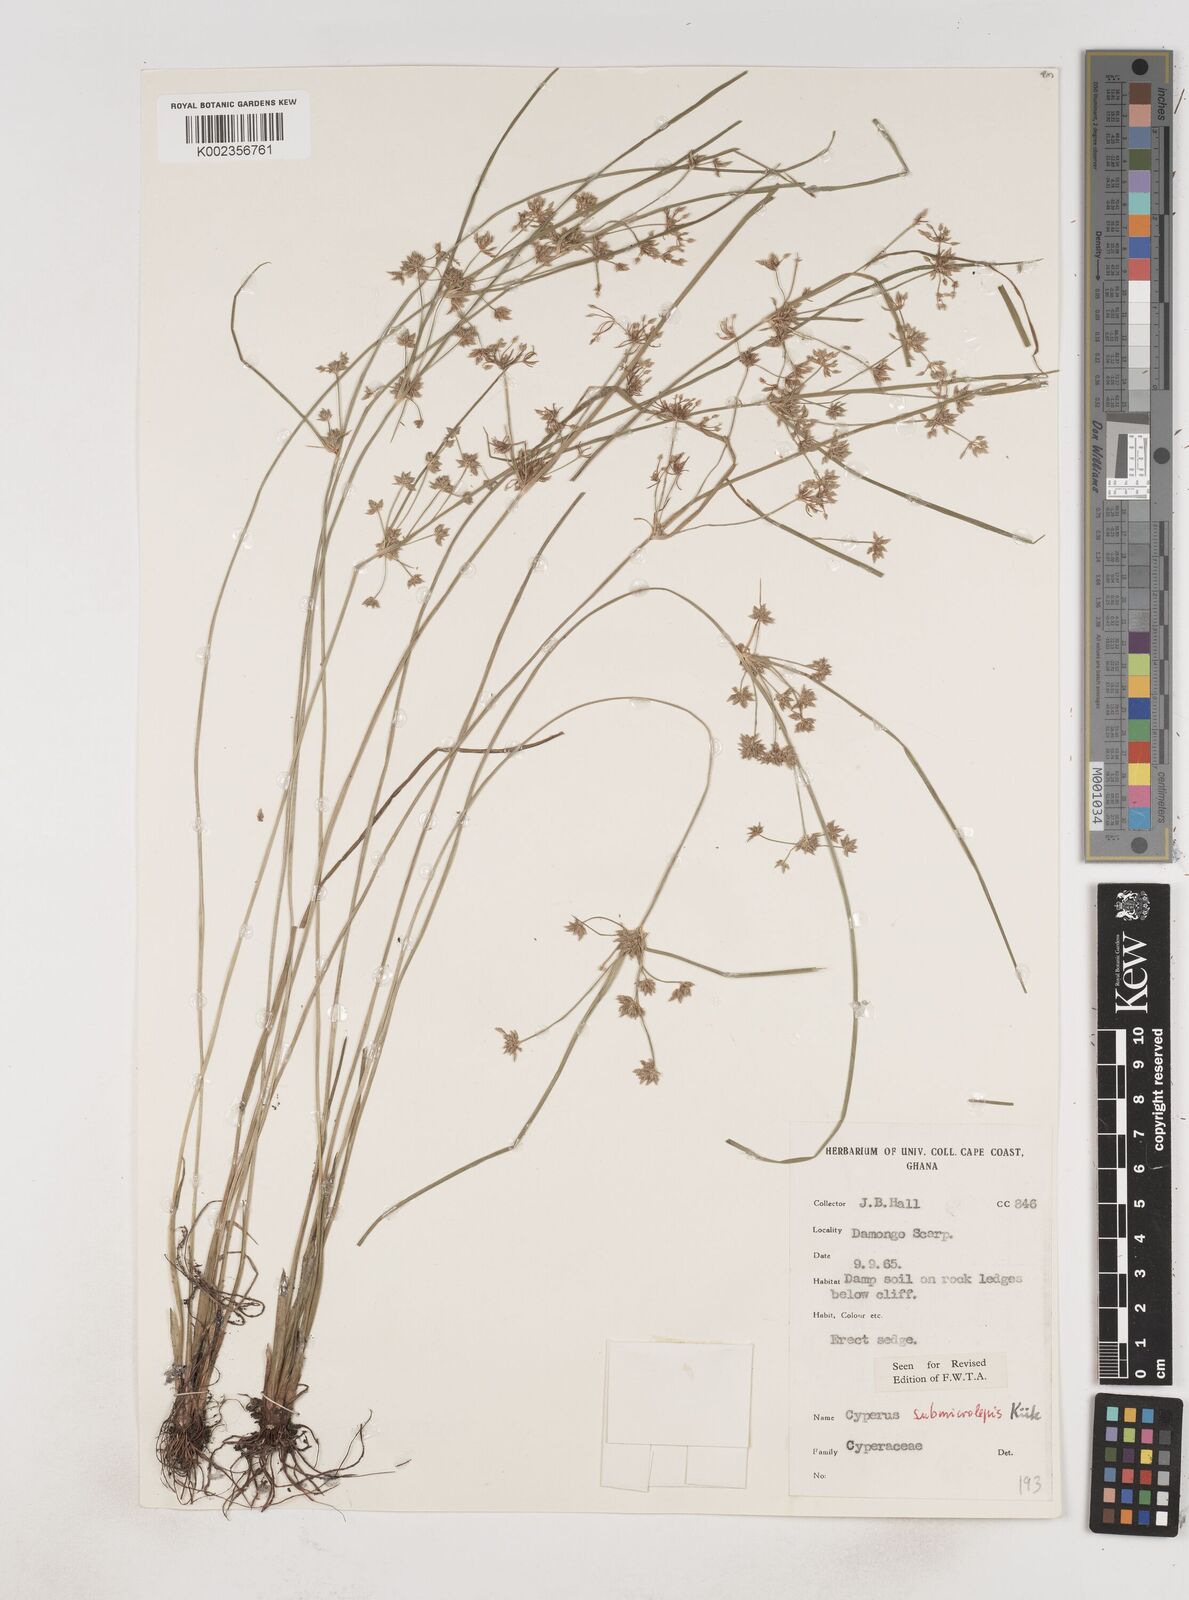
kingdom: Plantae
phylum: Tracheophyta
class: Liliopsida
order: Poales
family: Cyperaceae
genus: Cyperus
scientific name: Cyperus submicrolepis
